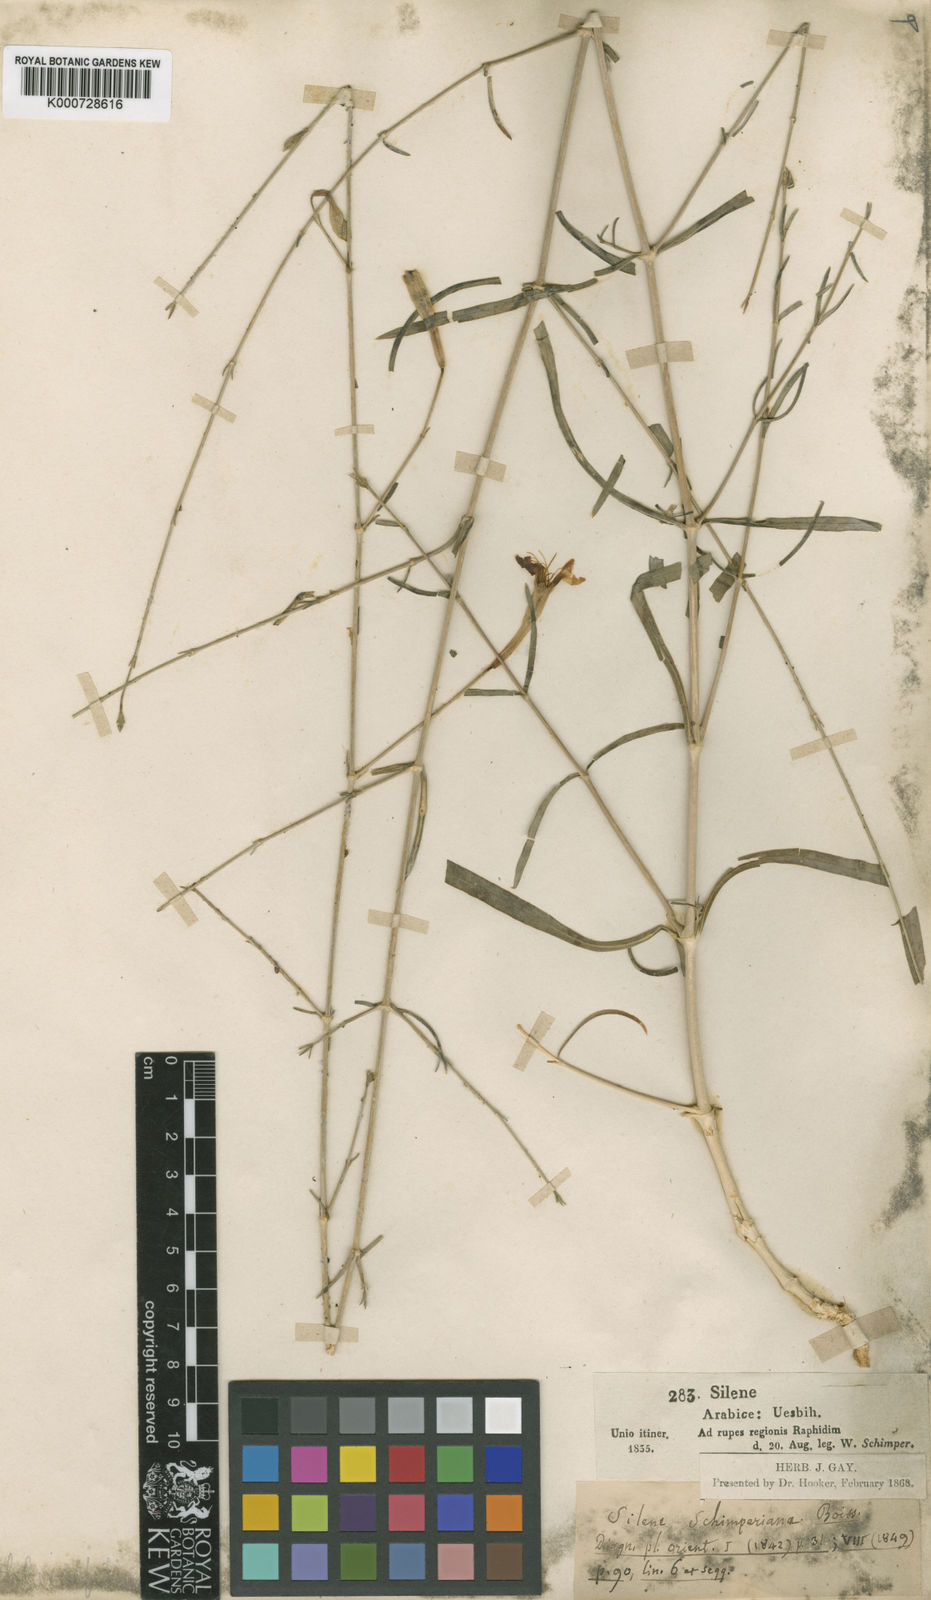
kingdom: Plantae
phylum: Tracheophyta
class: Magnoliopsida
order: Caryophyllales
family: Caryophyllaceae
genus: Silene
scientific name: Silene schimperiana
